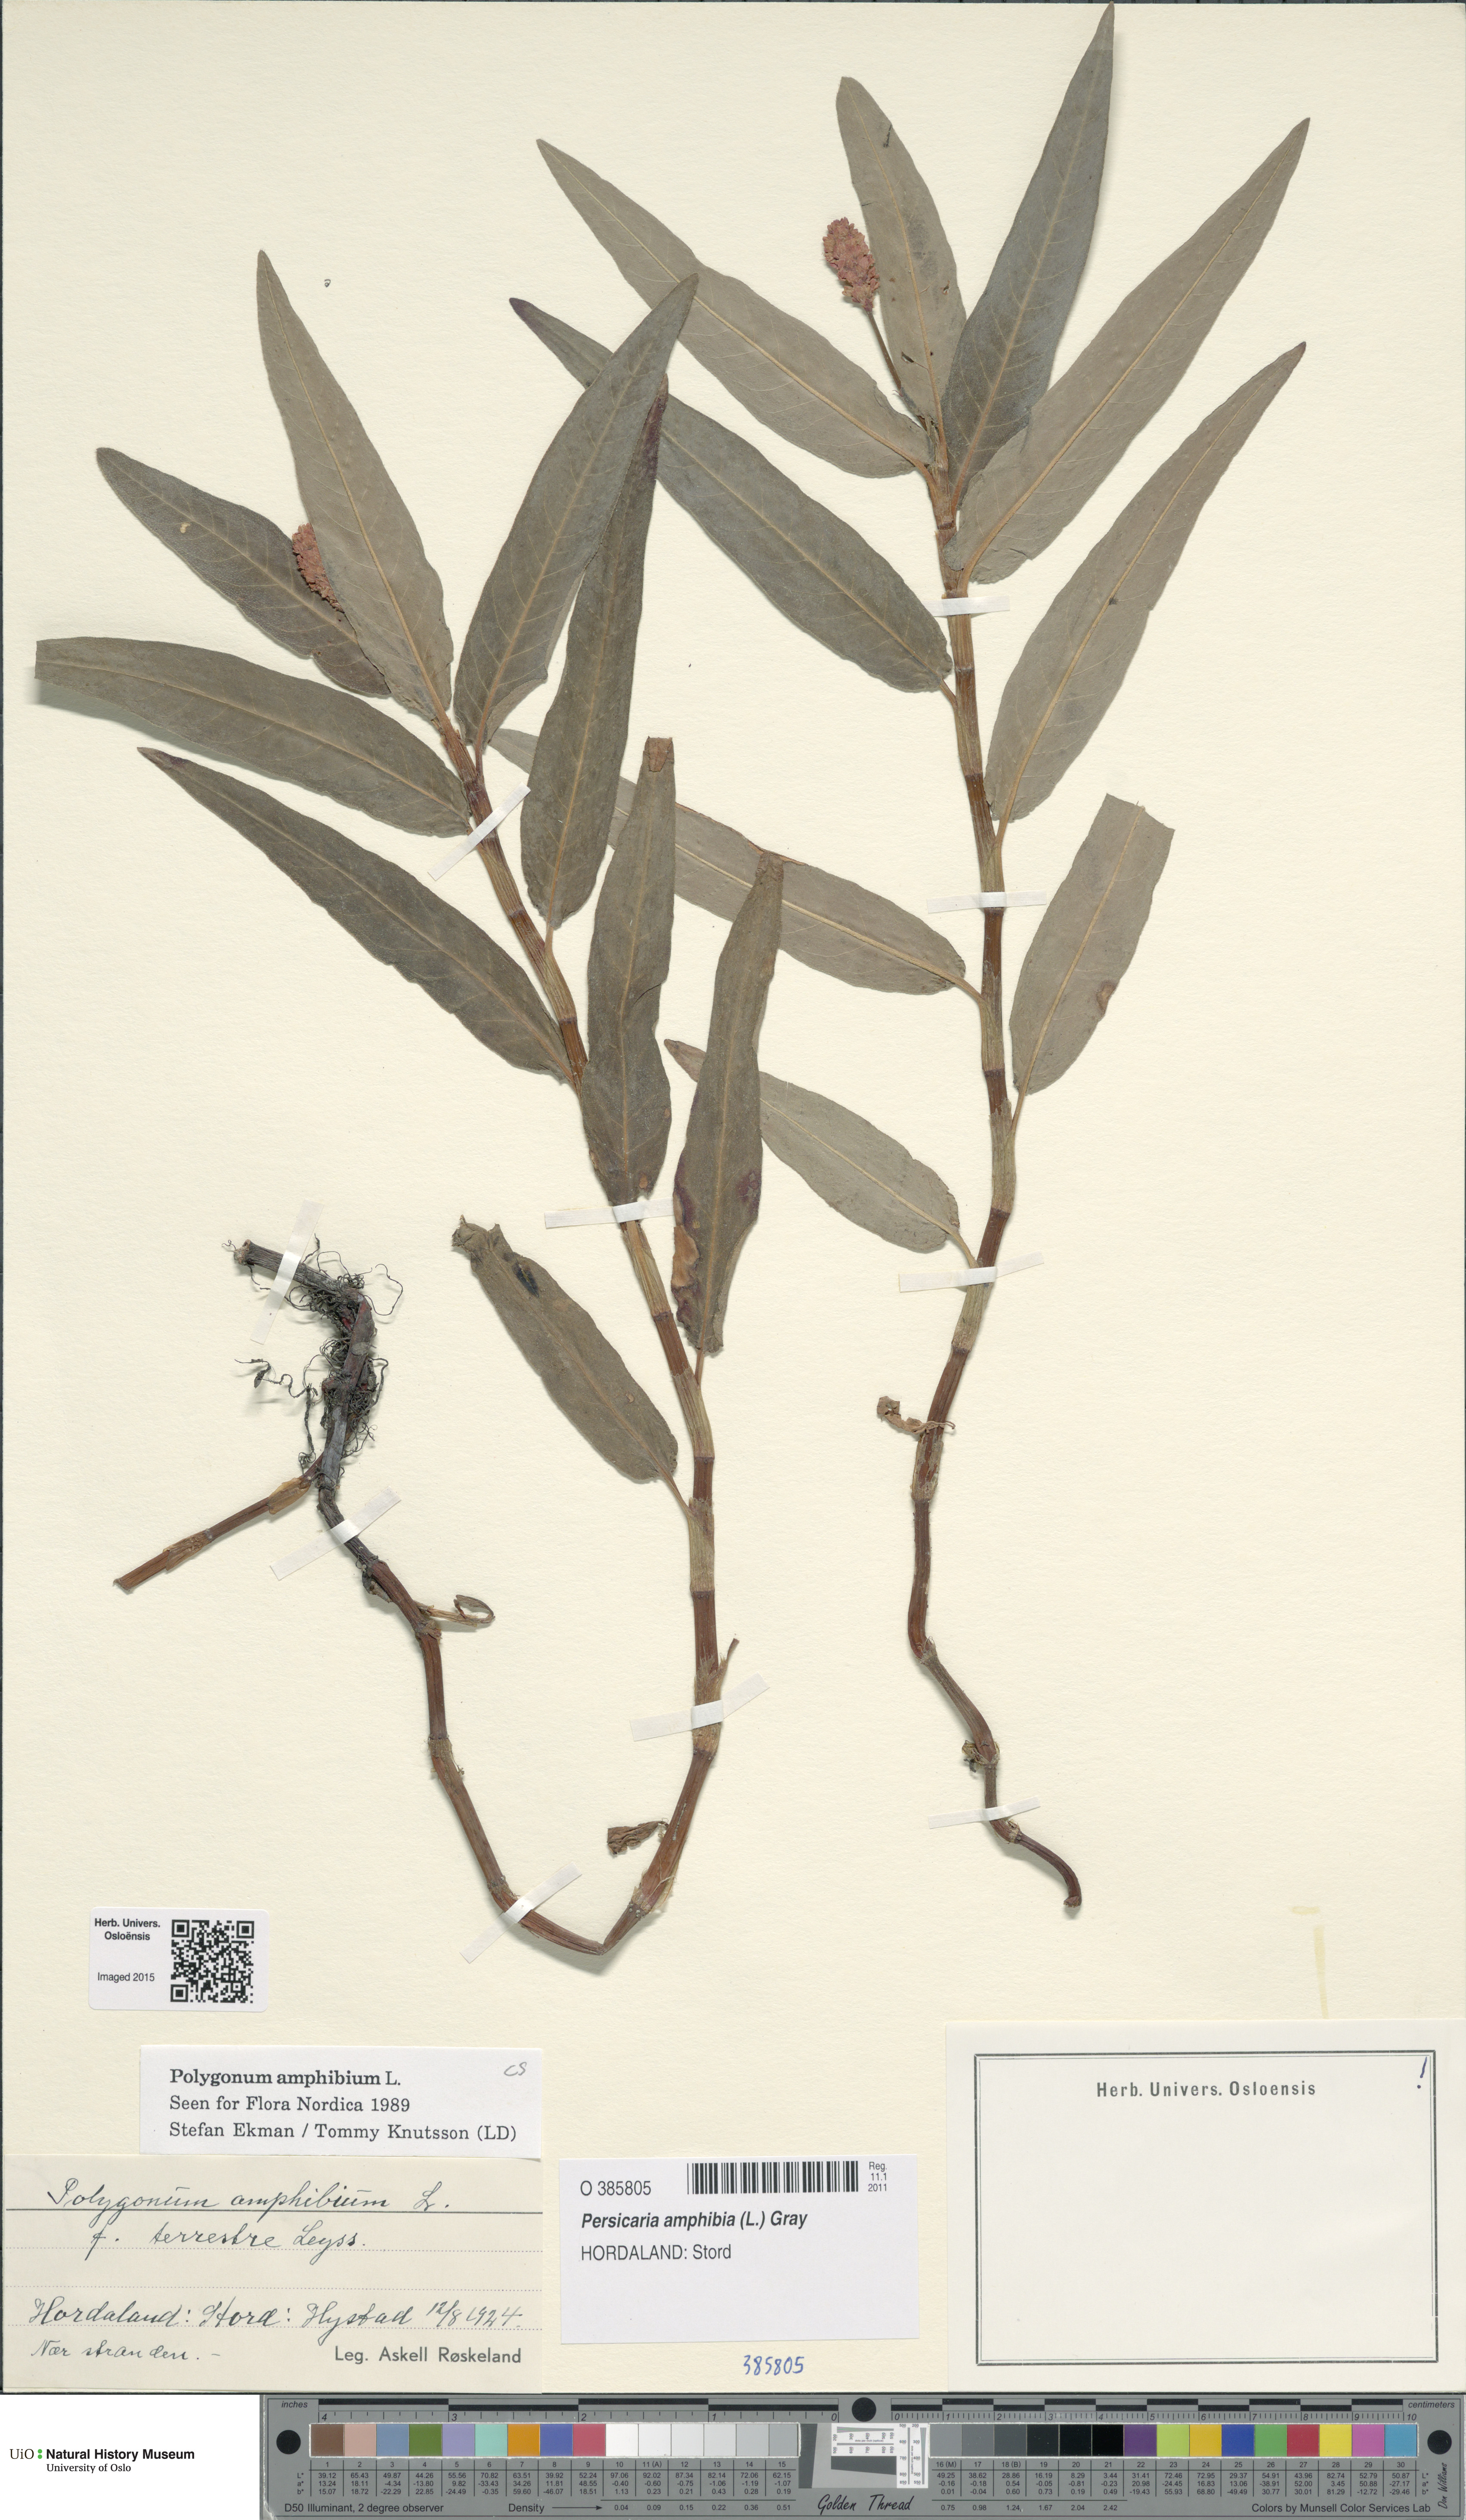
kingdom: Plantae
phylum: Tracheophyta
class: Magnoliopsida
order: Caryophyllales
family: Polygonaceae
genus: Persicaria
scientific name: Persicaria amphibia
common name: Amphibious bistort
